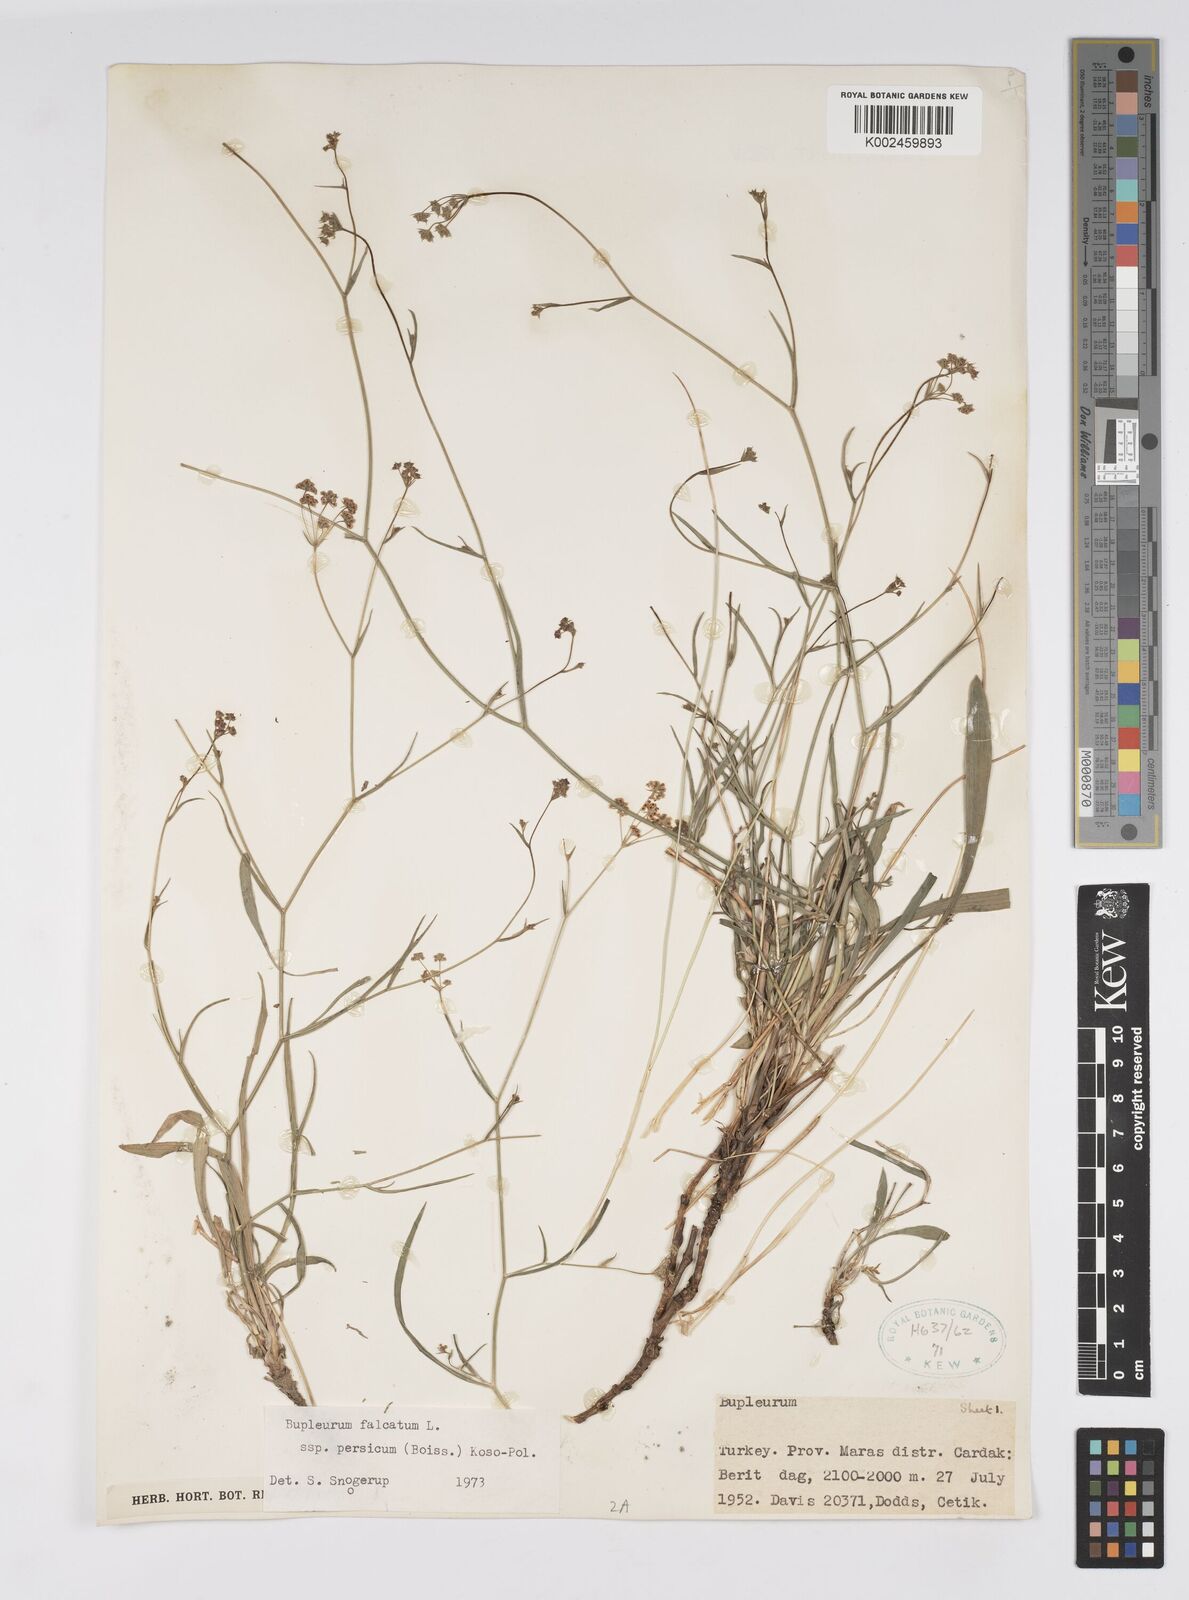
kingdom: Plantae
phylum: Tracheophyta
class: Magnoliopsida
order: Apiales
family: Apiaceae
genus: Bupleurum
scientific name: Bupleurum persicum
